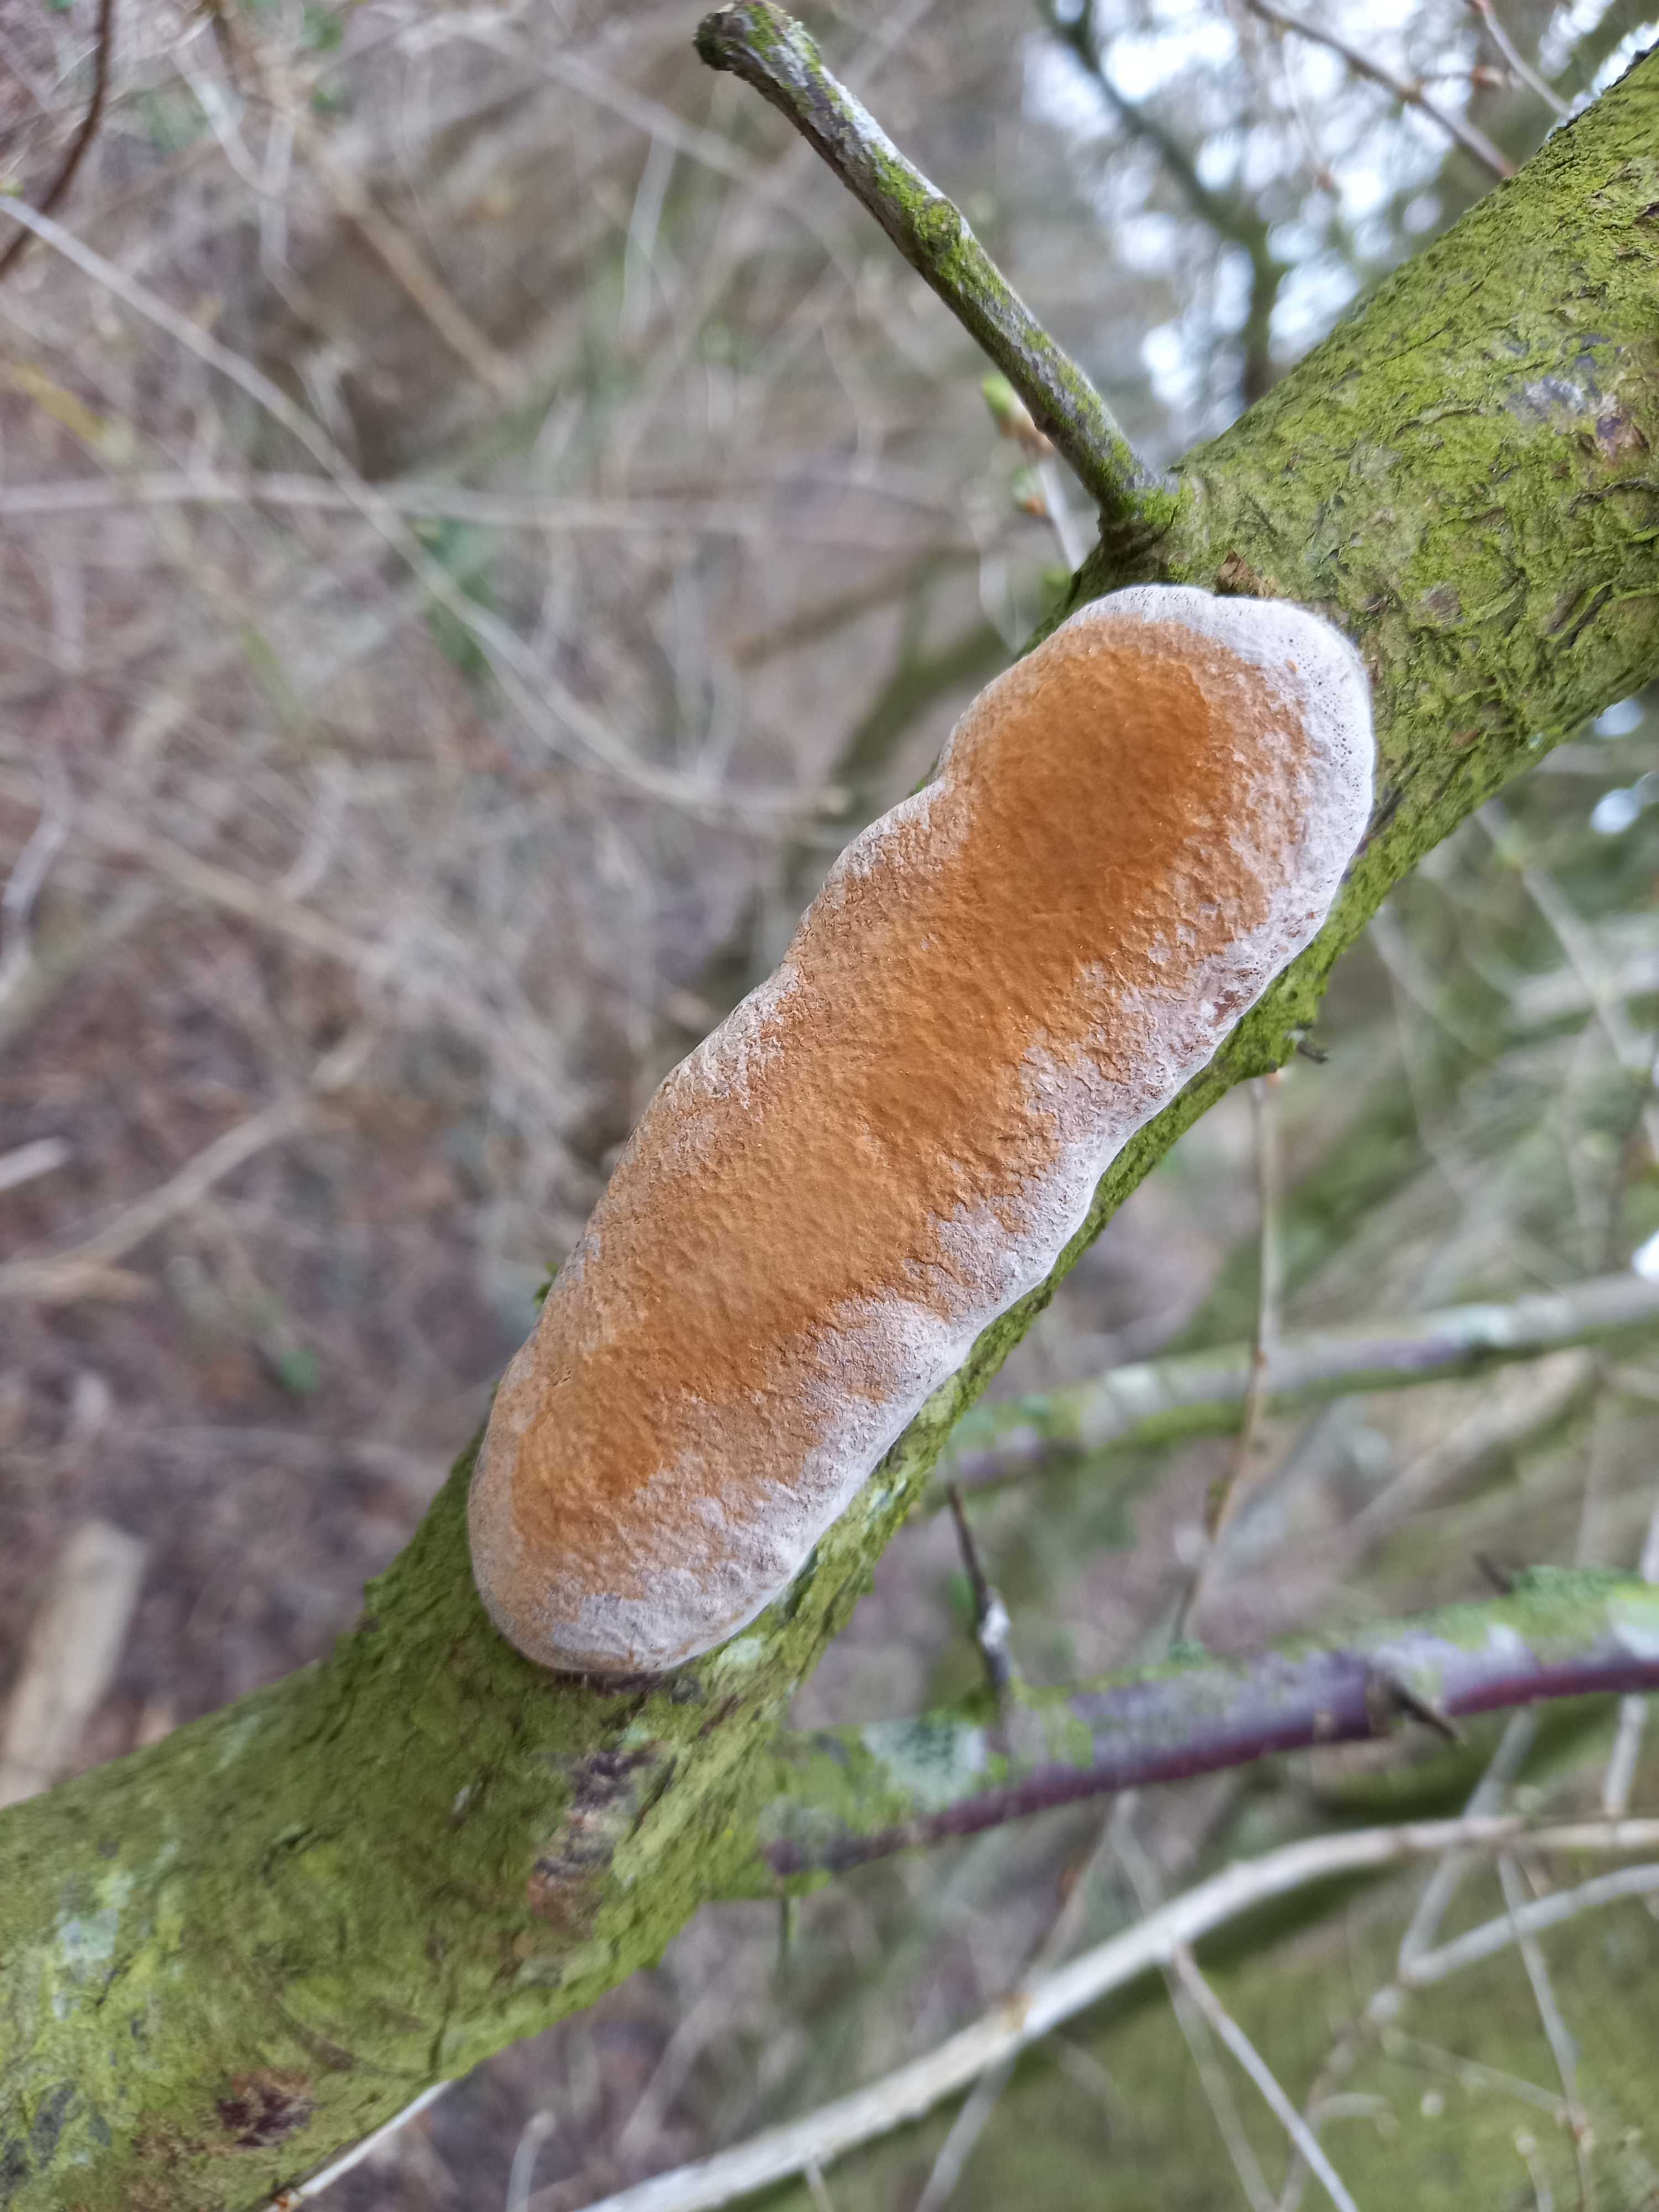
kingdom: Fungi
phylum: Basidiomycota
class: Agaricomycetes
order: Hymenochaetales
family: Hymenochaetaceae
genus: Phellinus
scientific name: Phellinus pomaceus
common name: blomme-ildporesvamp
